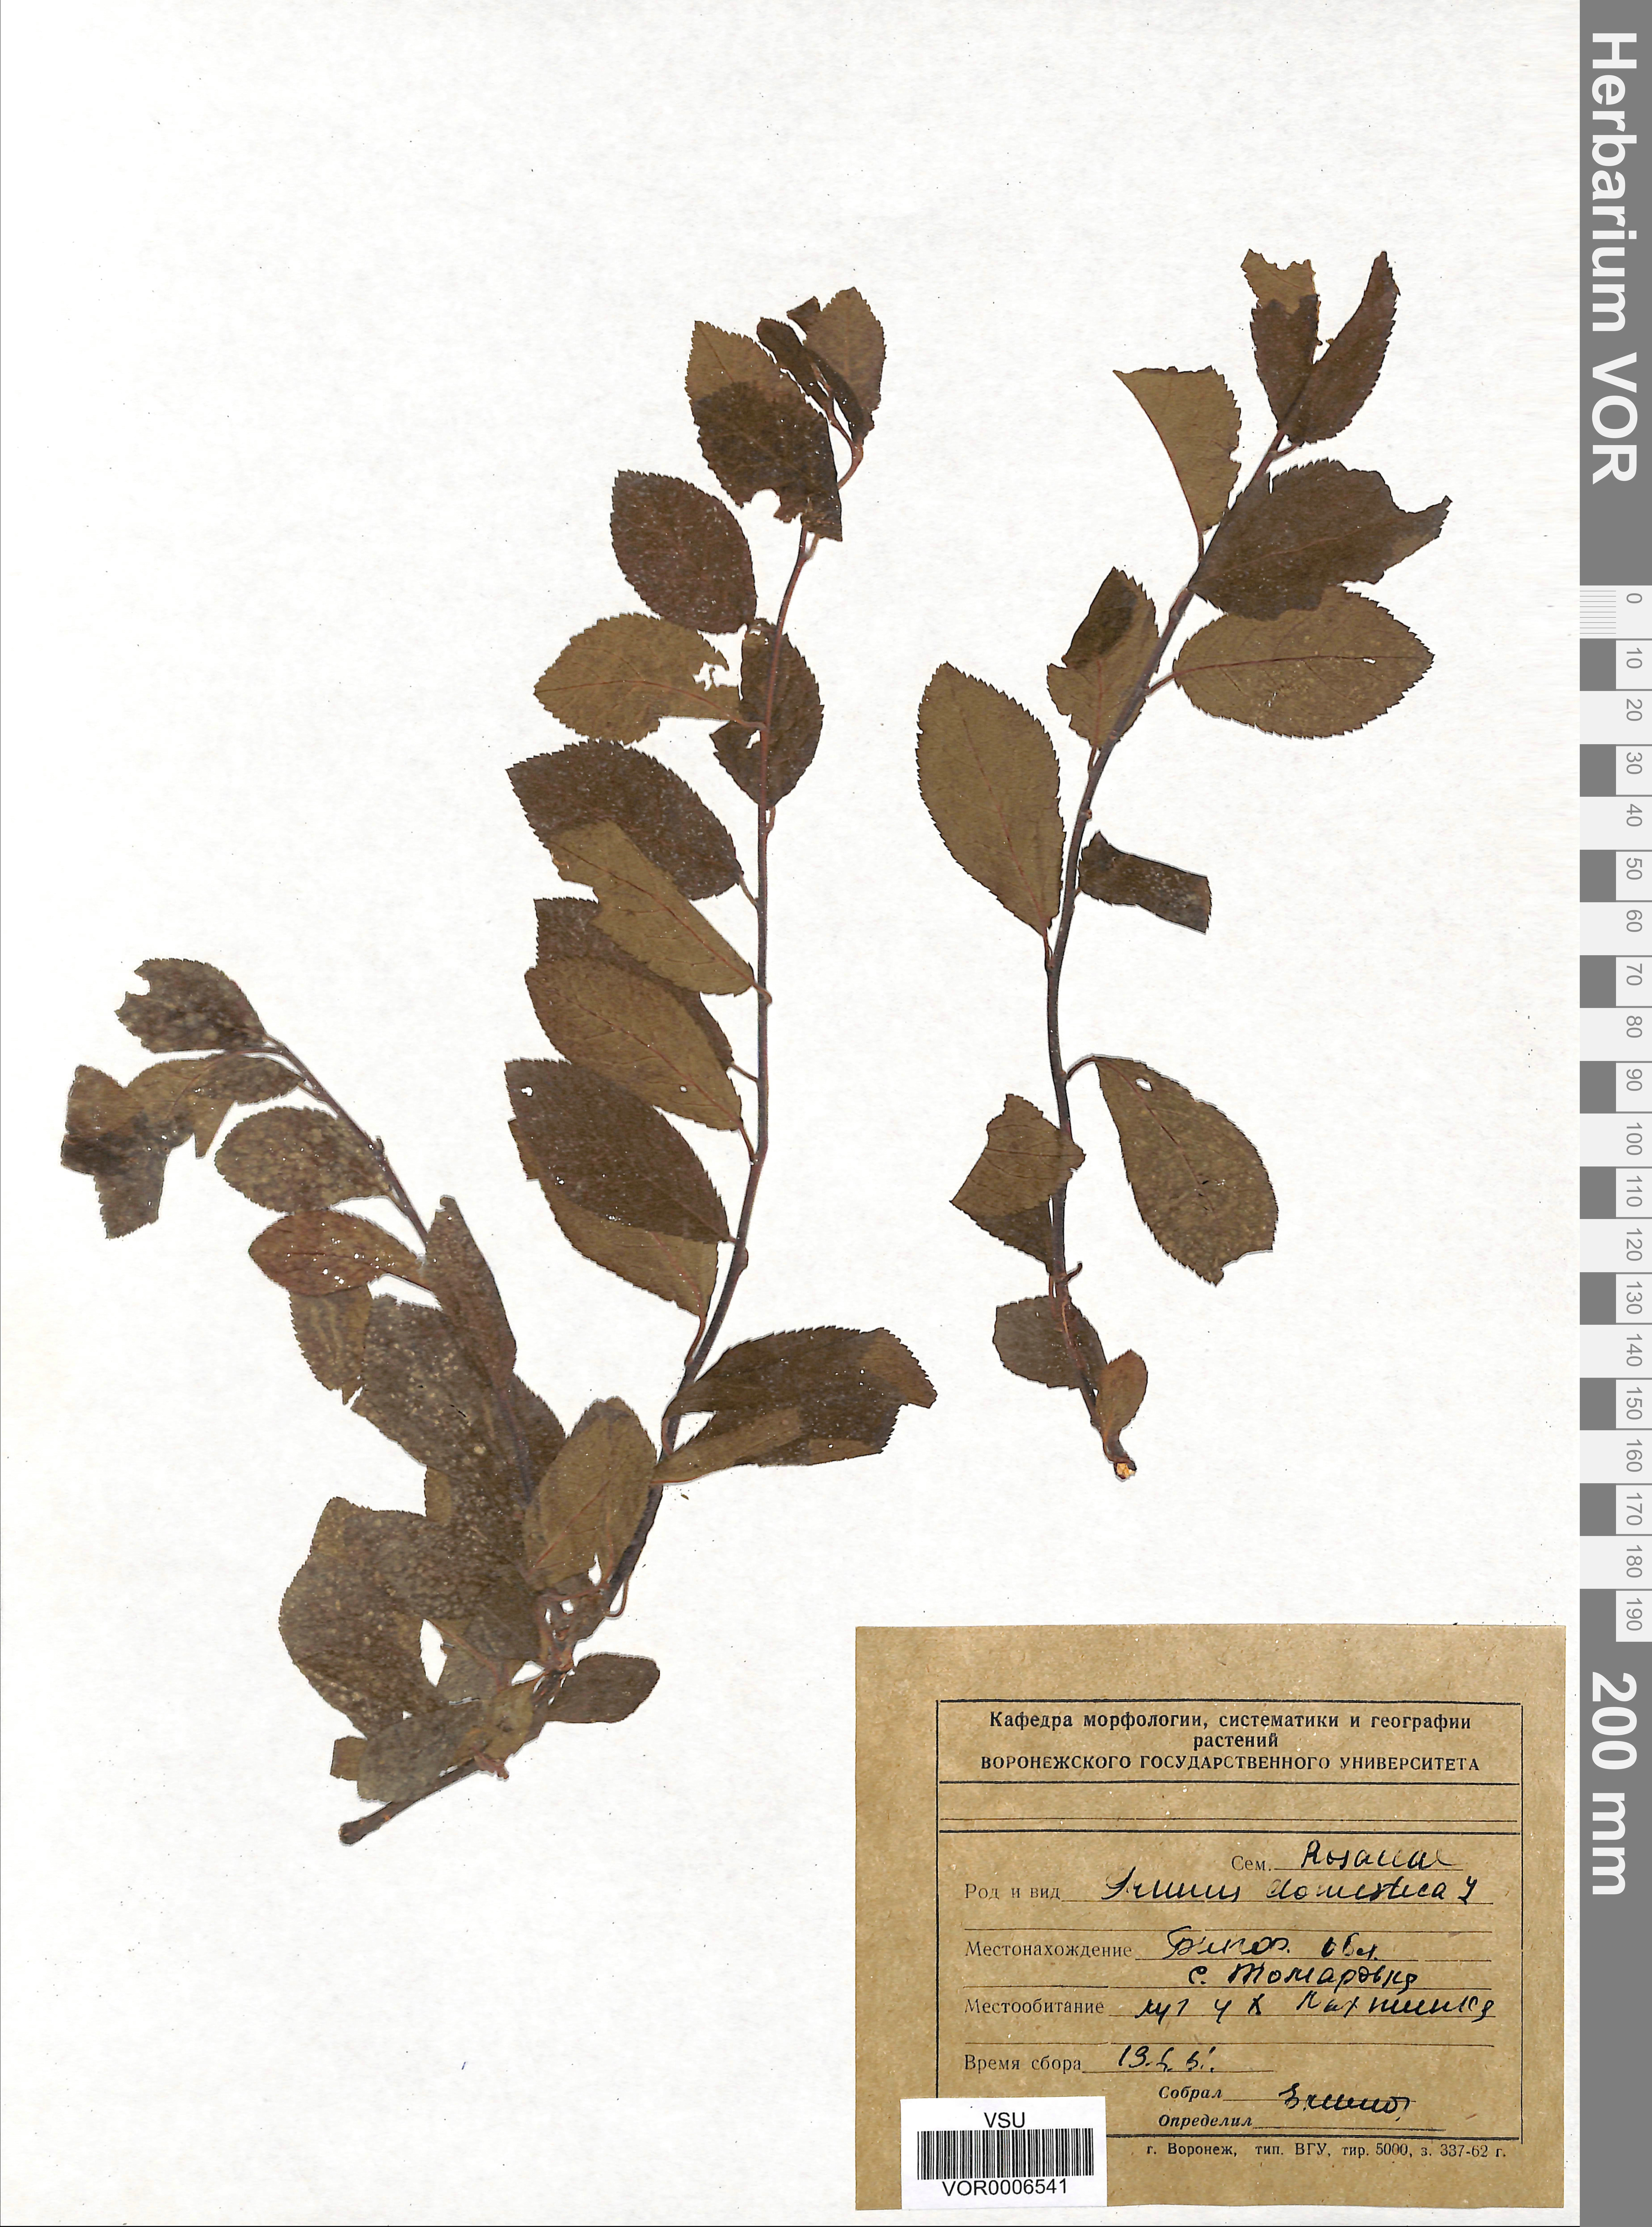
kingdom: Plantae
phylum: Tracheophyta
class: Magnoliopsida
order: Rosales
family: Rosaceae
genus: Prunus
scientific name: Prunus domestica
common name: Wild plum
